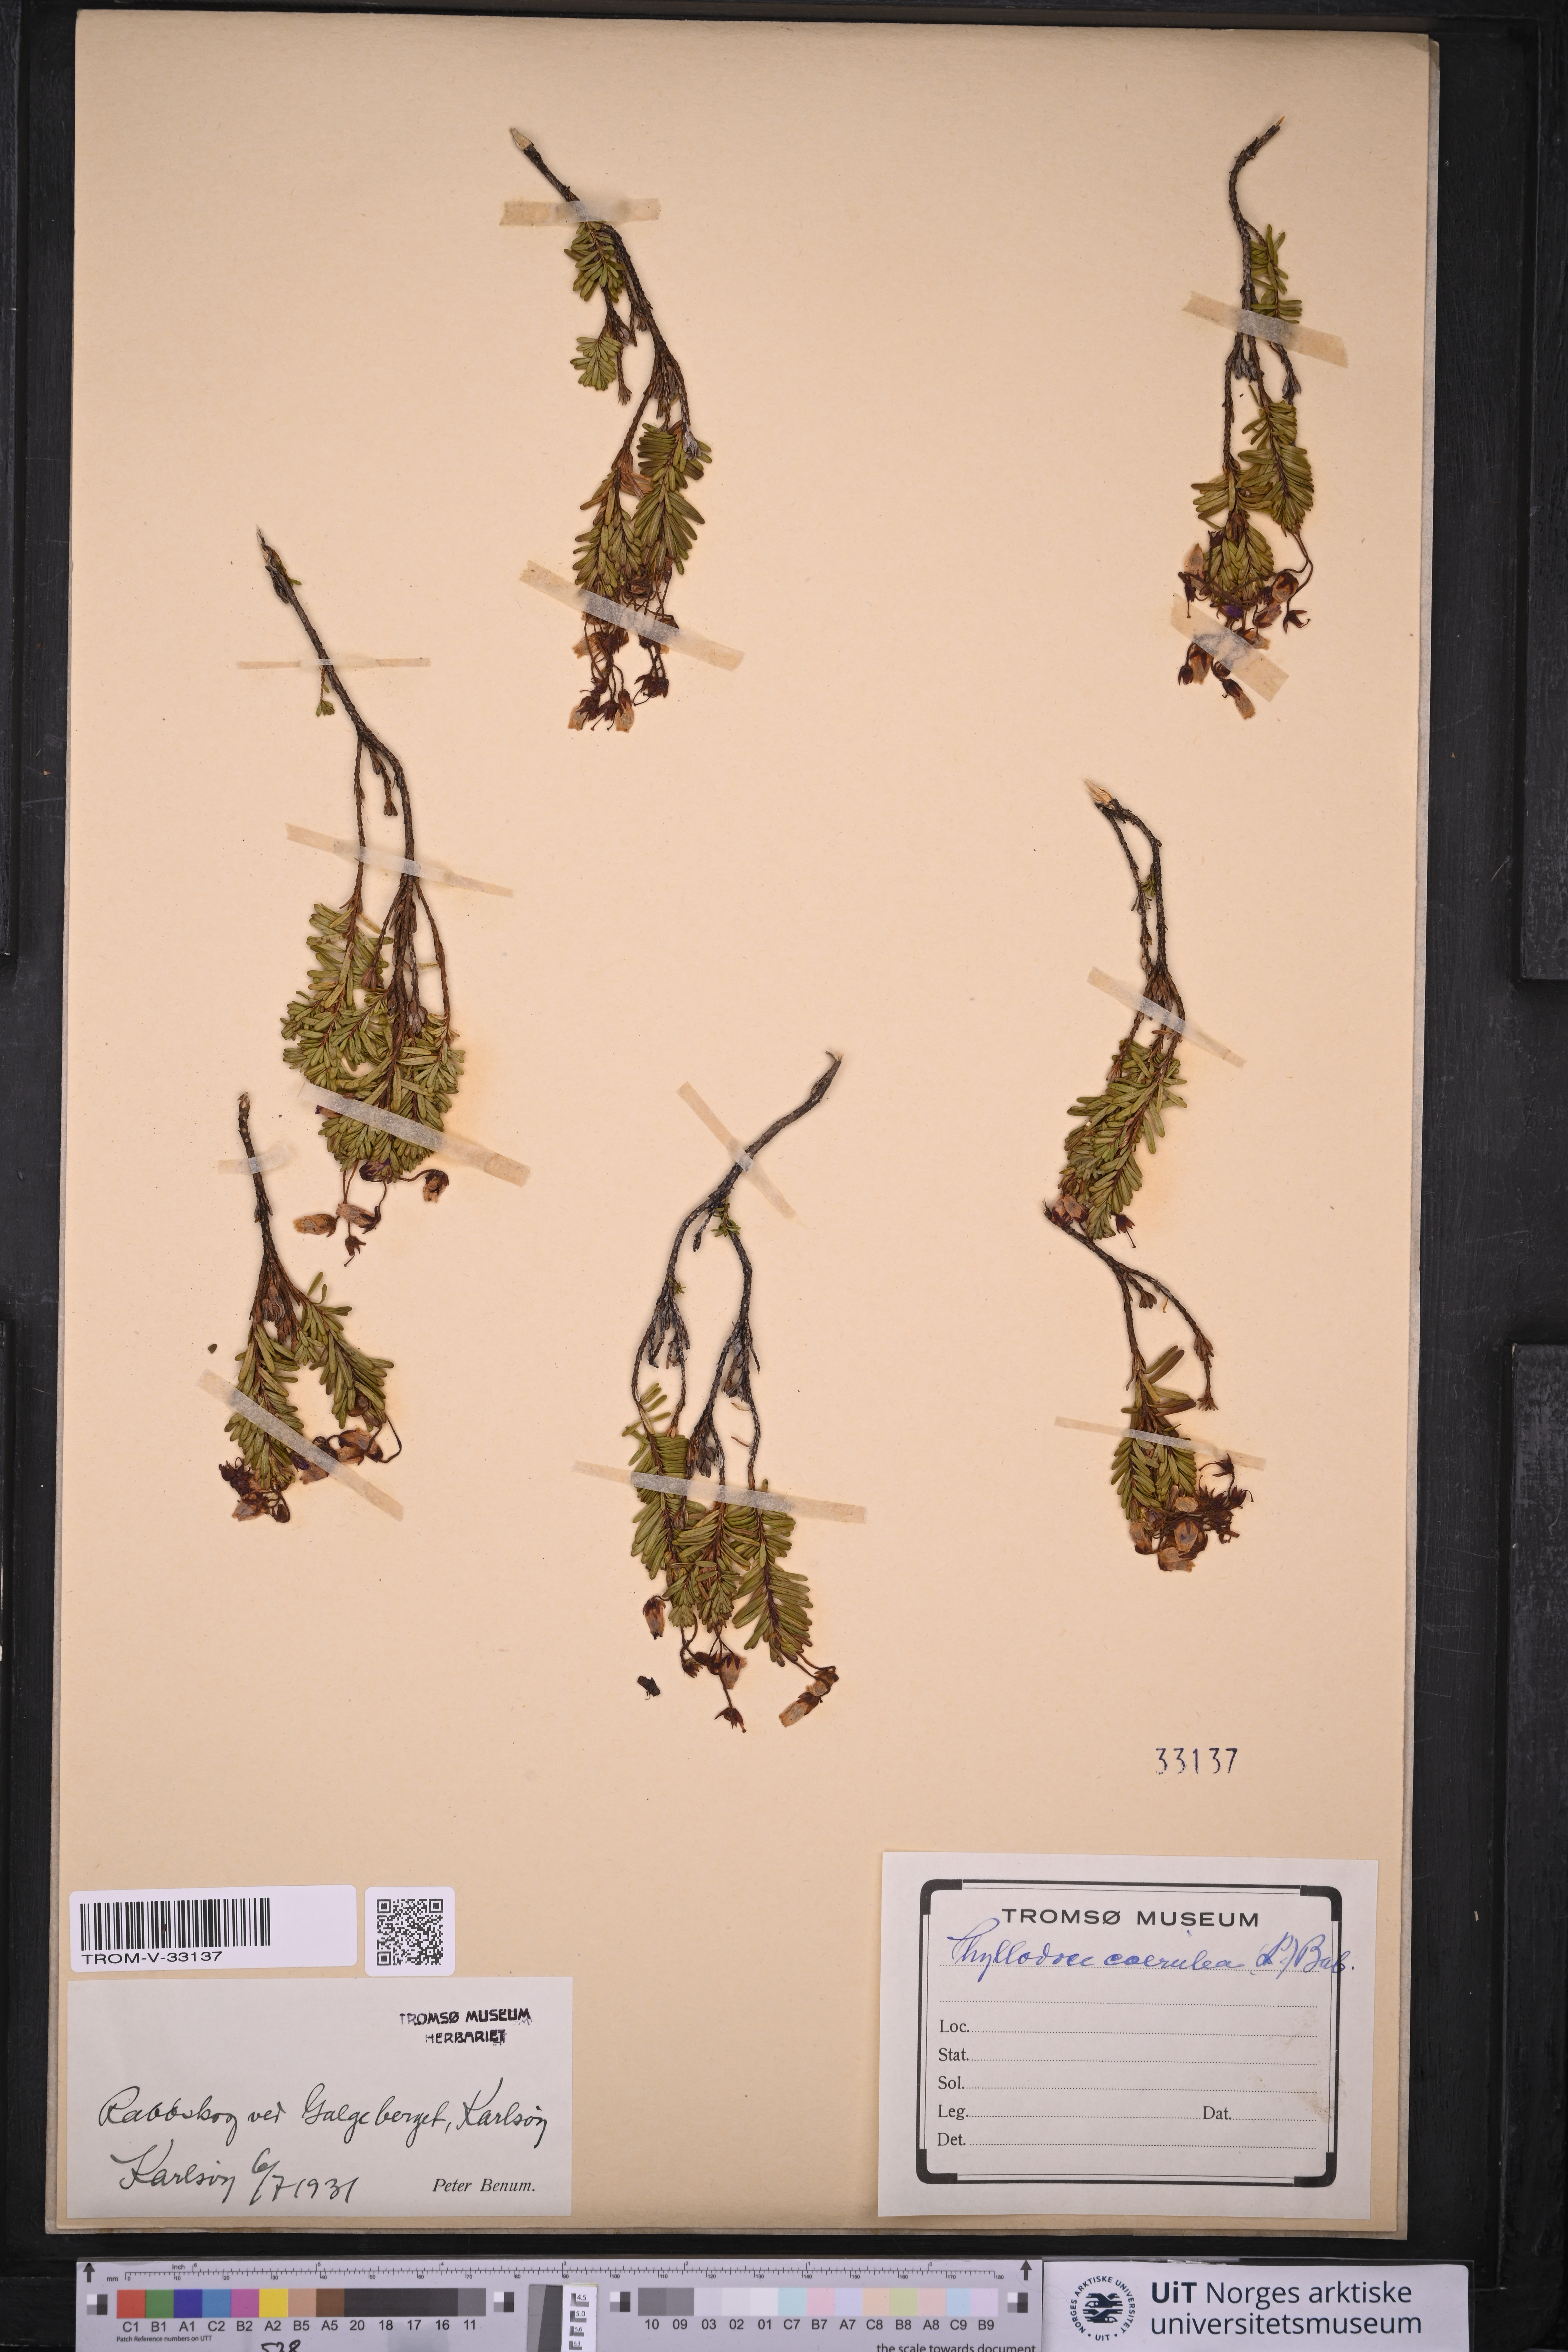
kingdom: Plantae
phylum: Tracheophyta
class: Magnoliopsida
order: Ericales
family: Ericaceae
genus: Phyllodoce
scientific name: Phyllodoce caerulea
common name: Blue heath
